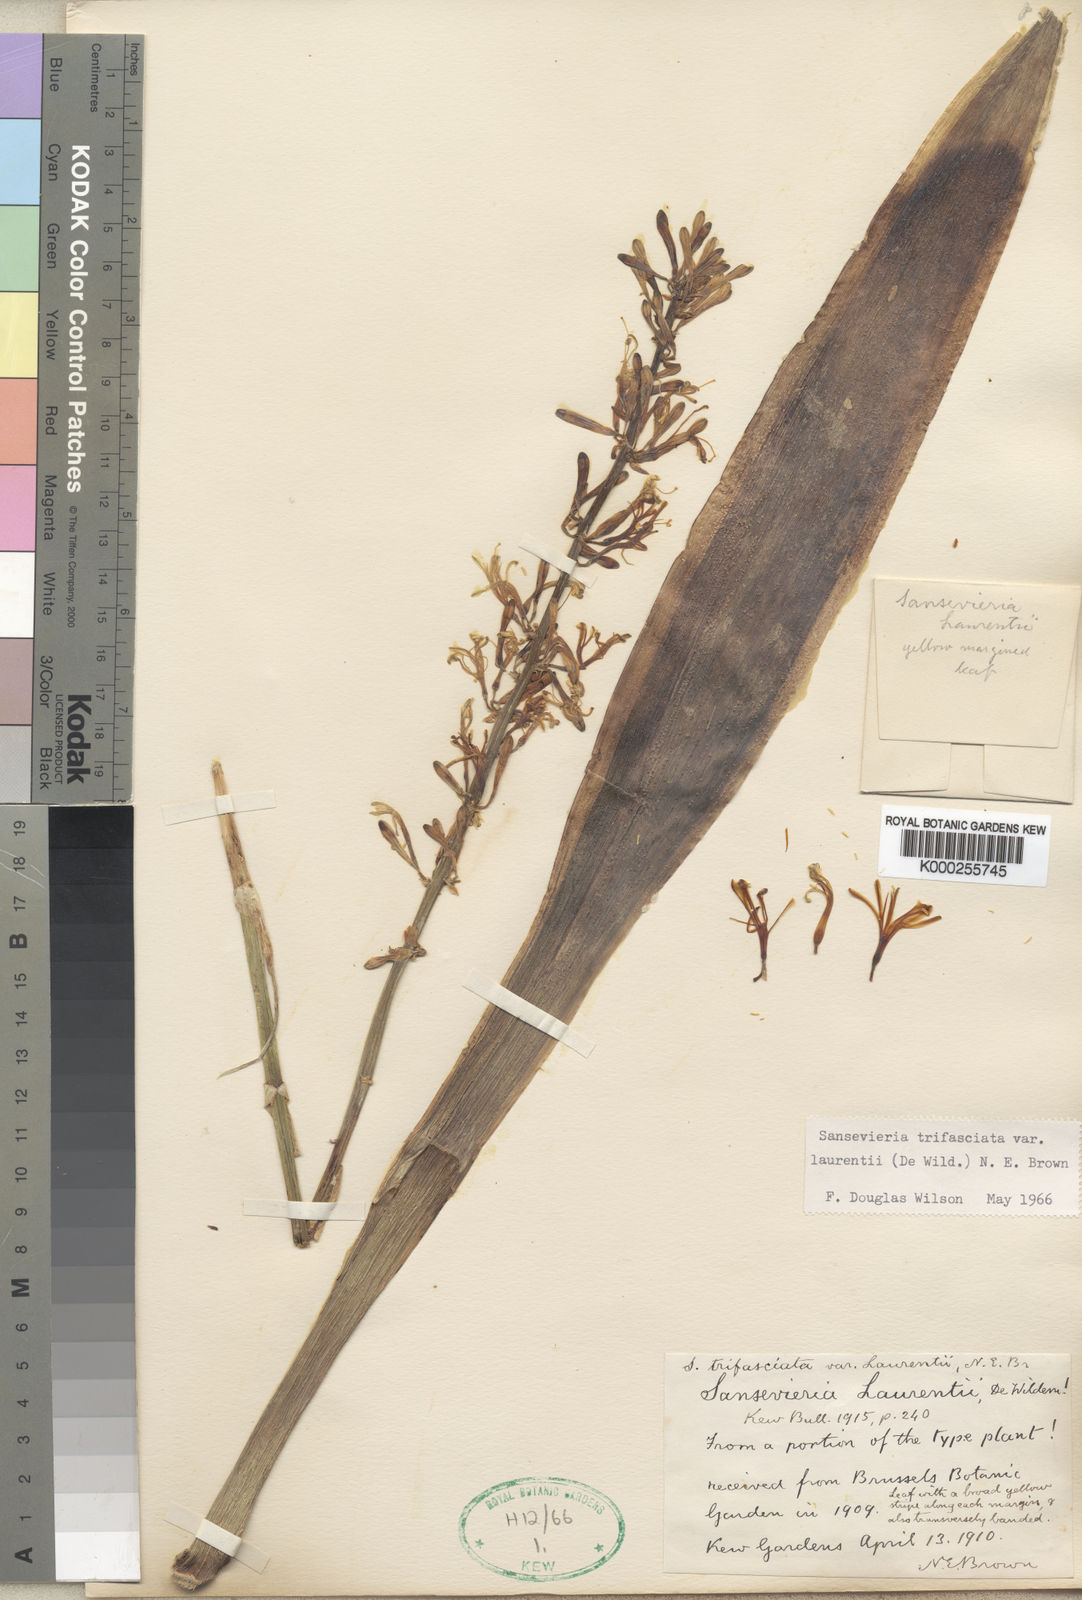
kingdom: Plantae
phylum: Tracheophyta
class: Liliopsida
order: Asparagales
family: Asparagaceae
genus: Dracaena
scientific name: Dracaena trifasciata
